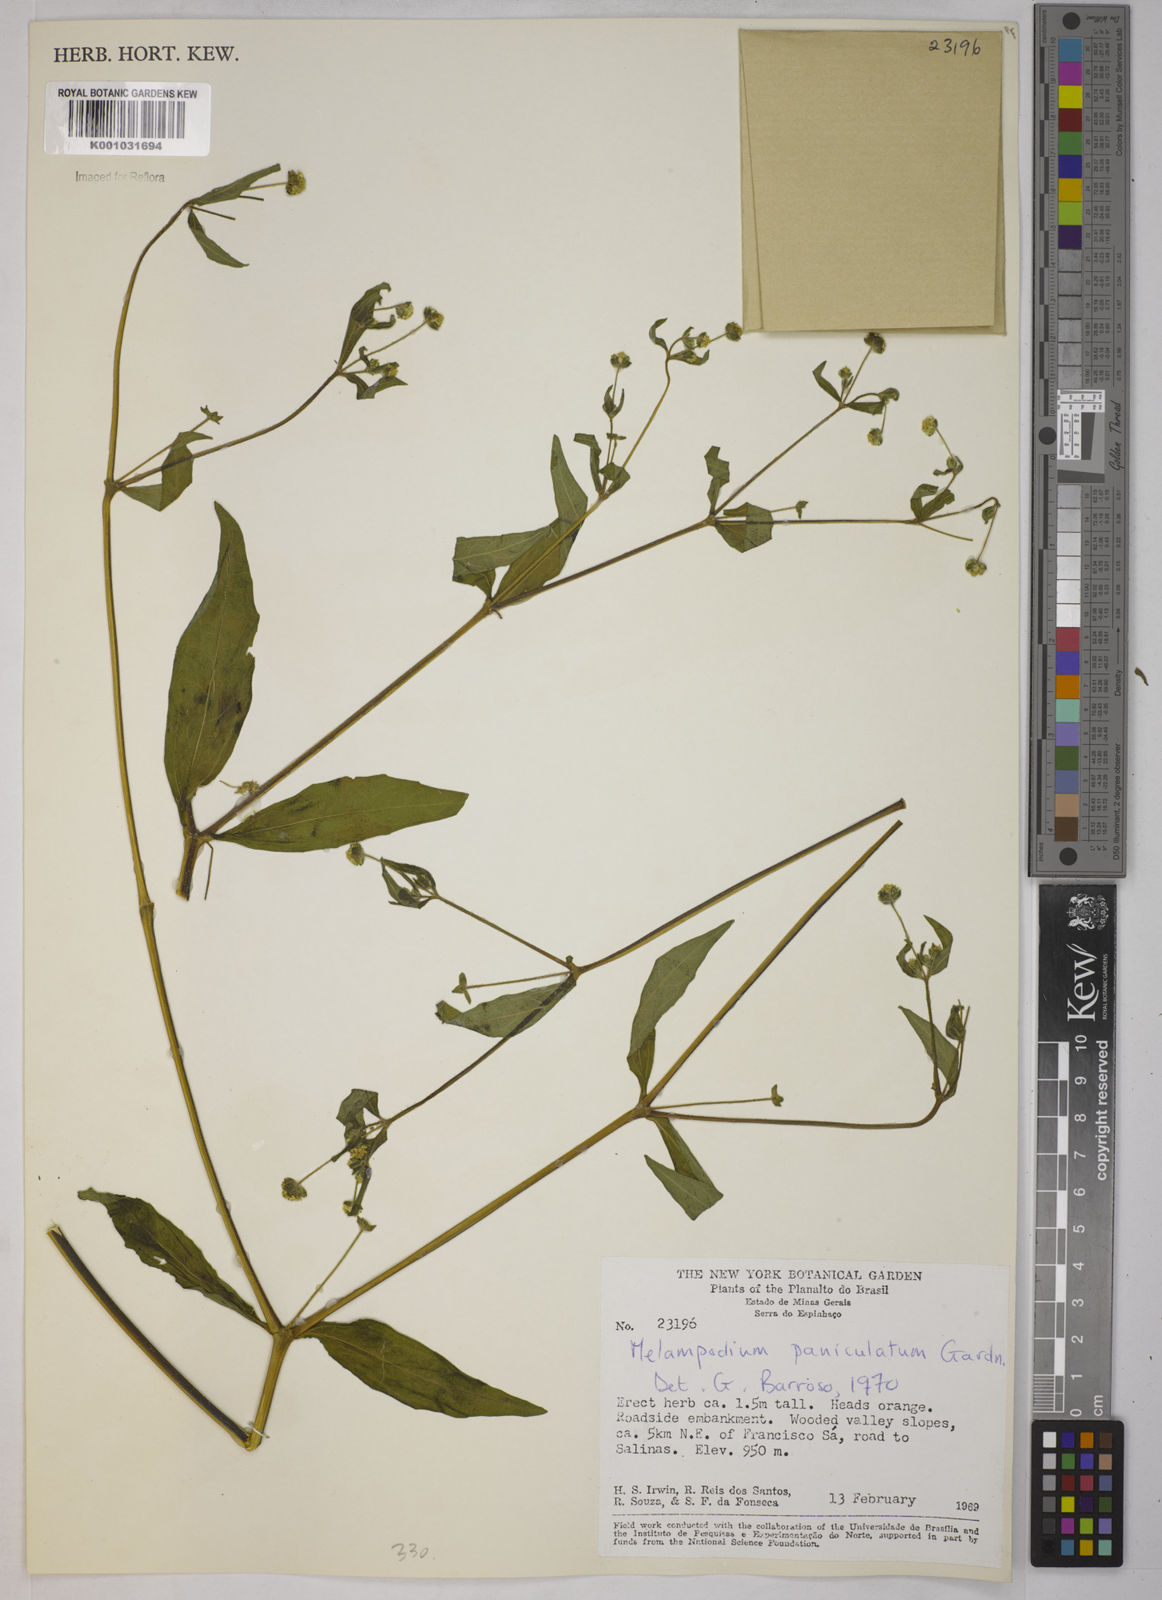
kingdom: Plantae
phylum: Tracheophyta
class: Magnoliopsida
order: Asterales
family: Asteraceae
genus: Melampodium
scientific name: Melampodium paniculatum
